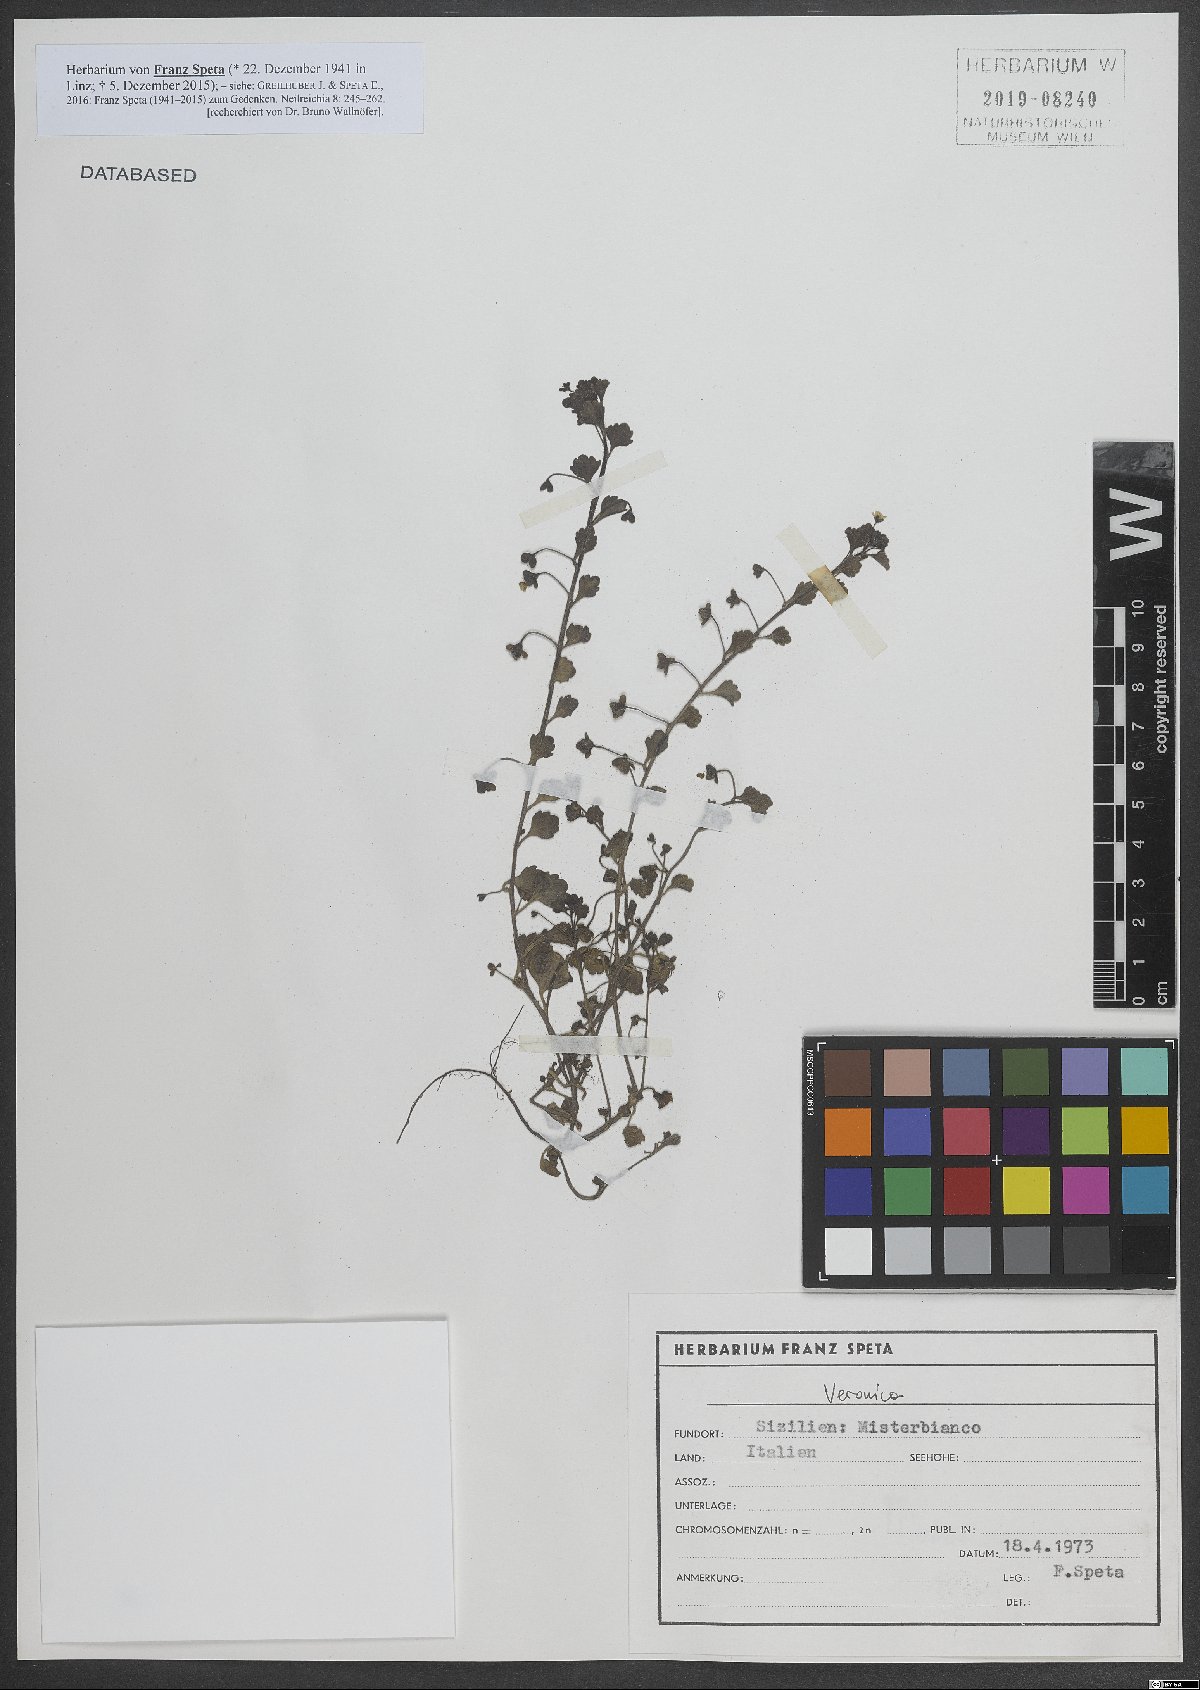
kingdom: Plantae
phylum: Tracheophyta
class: Magnoliopsida
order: Lamiales
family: Plantaginaceae
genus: Veronica
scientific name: Veronica
